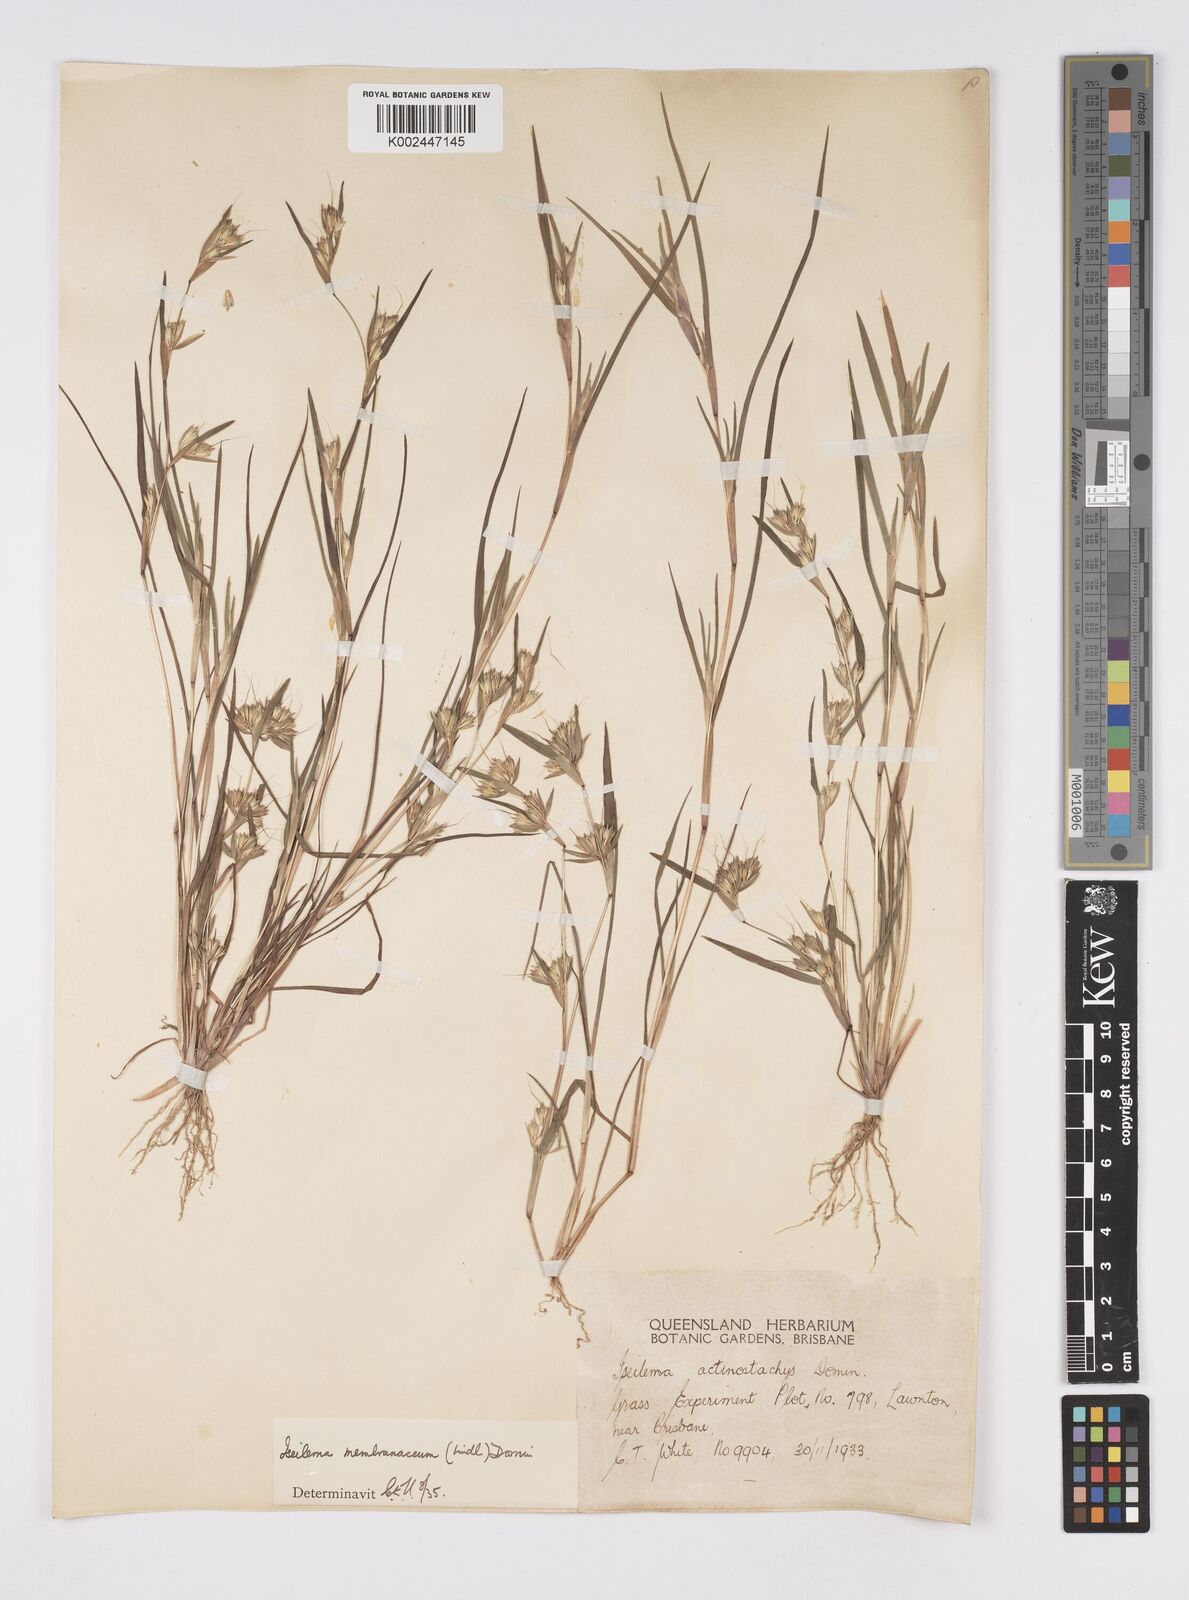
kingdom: Plantae
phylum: Tracheophyta
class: Liliopsida
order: Poales
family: Poaceae
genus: Iseilema
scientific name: Iseilema membranaceum
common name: Small flinders grass
